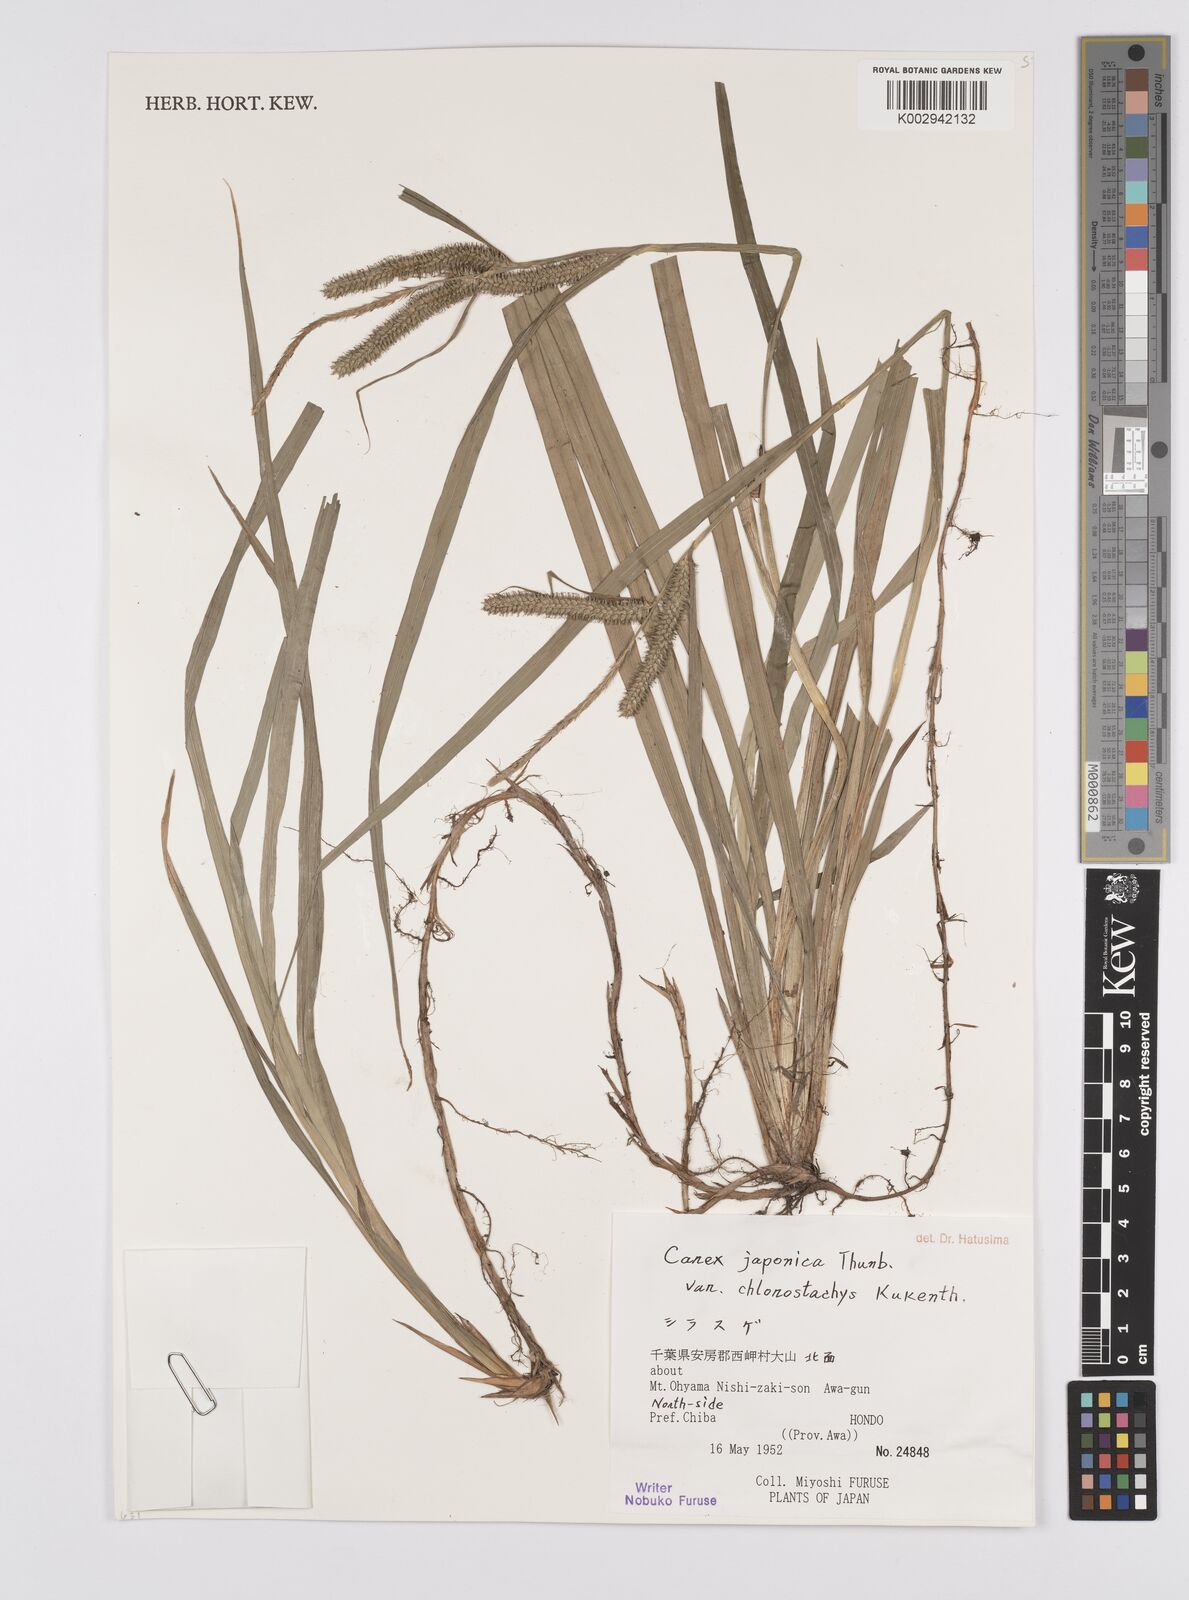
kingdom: Plantae
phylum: Tracheophyta
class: Liliopsida
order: Poales
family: Cyperaceae
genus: Carex
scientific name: Carex japonica
